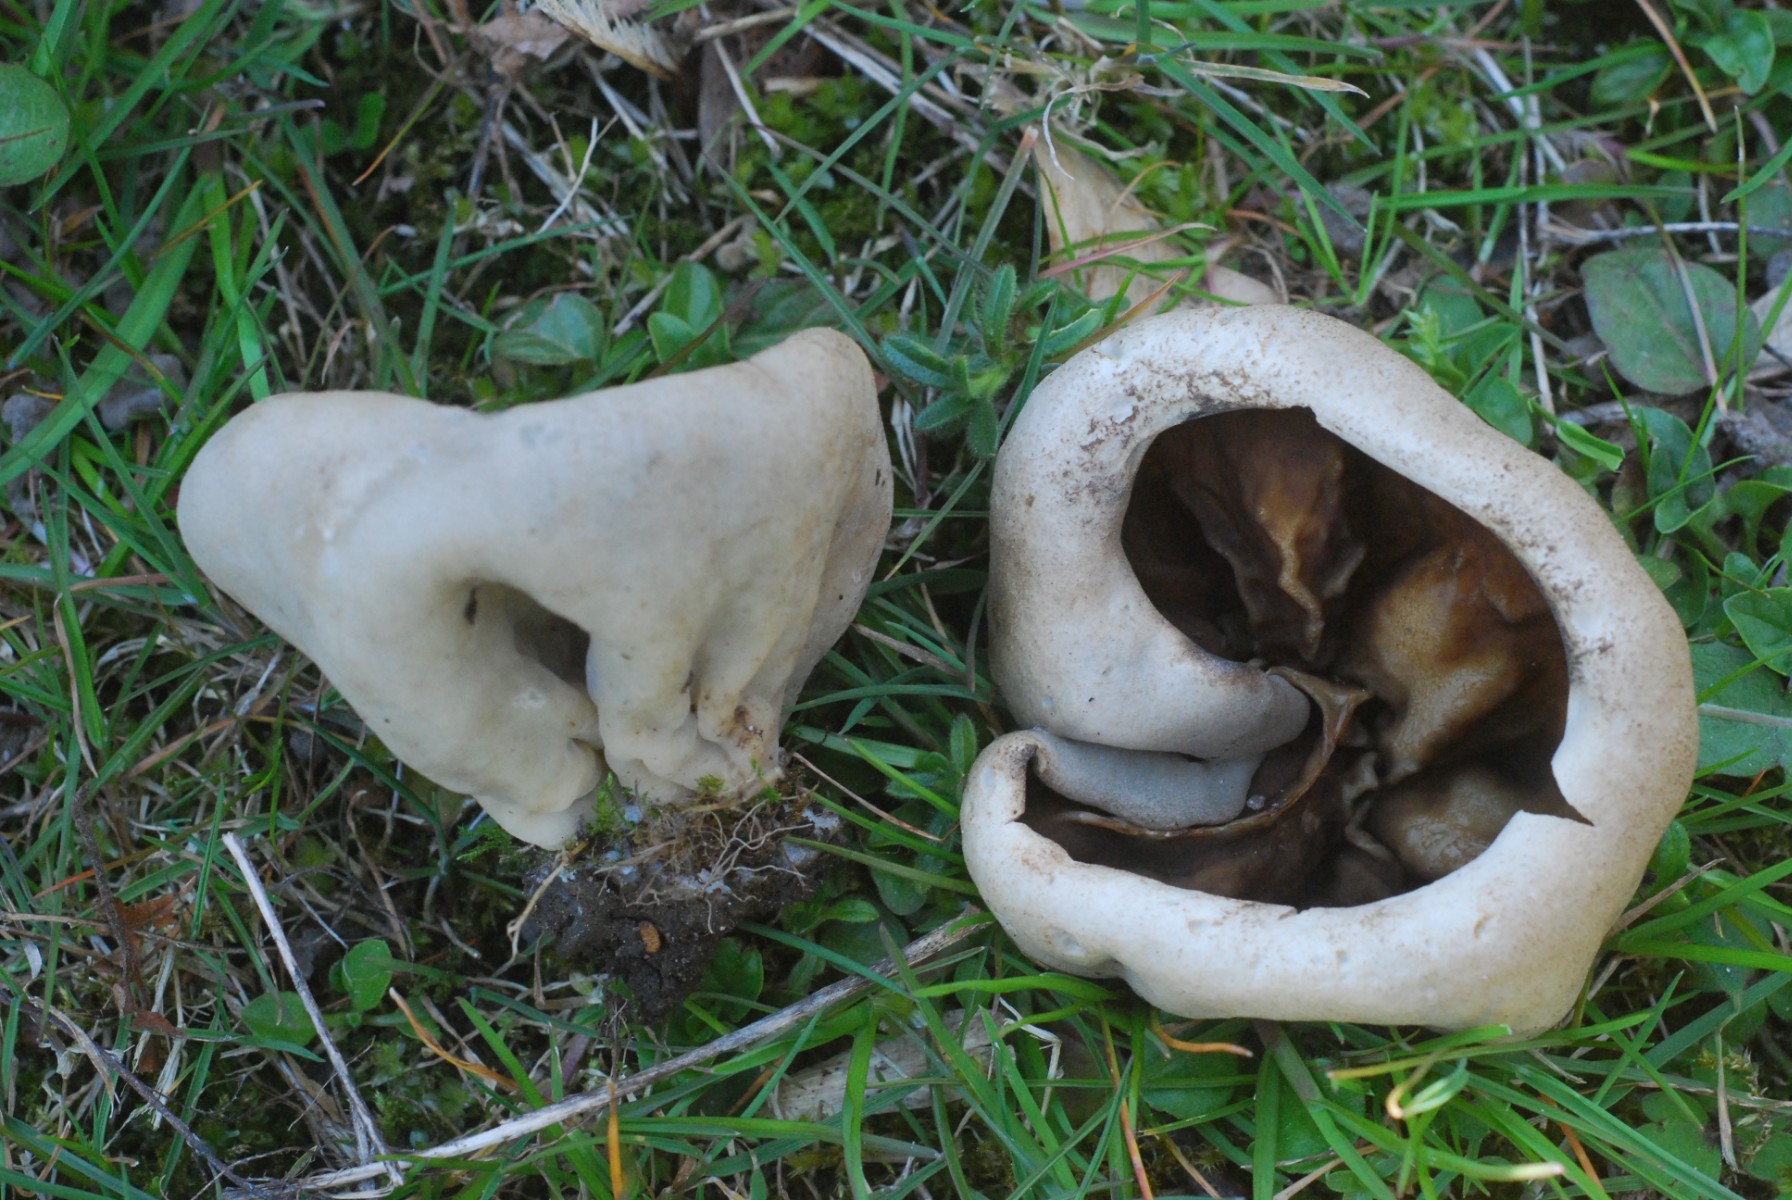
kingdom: Fungi
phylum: Ascomycota
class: Pezizomycetes
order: Pezizales
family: Morchellaceae
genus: Disciotis
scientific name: Disciotis venosa
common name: klor-bægermorkel
